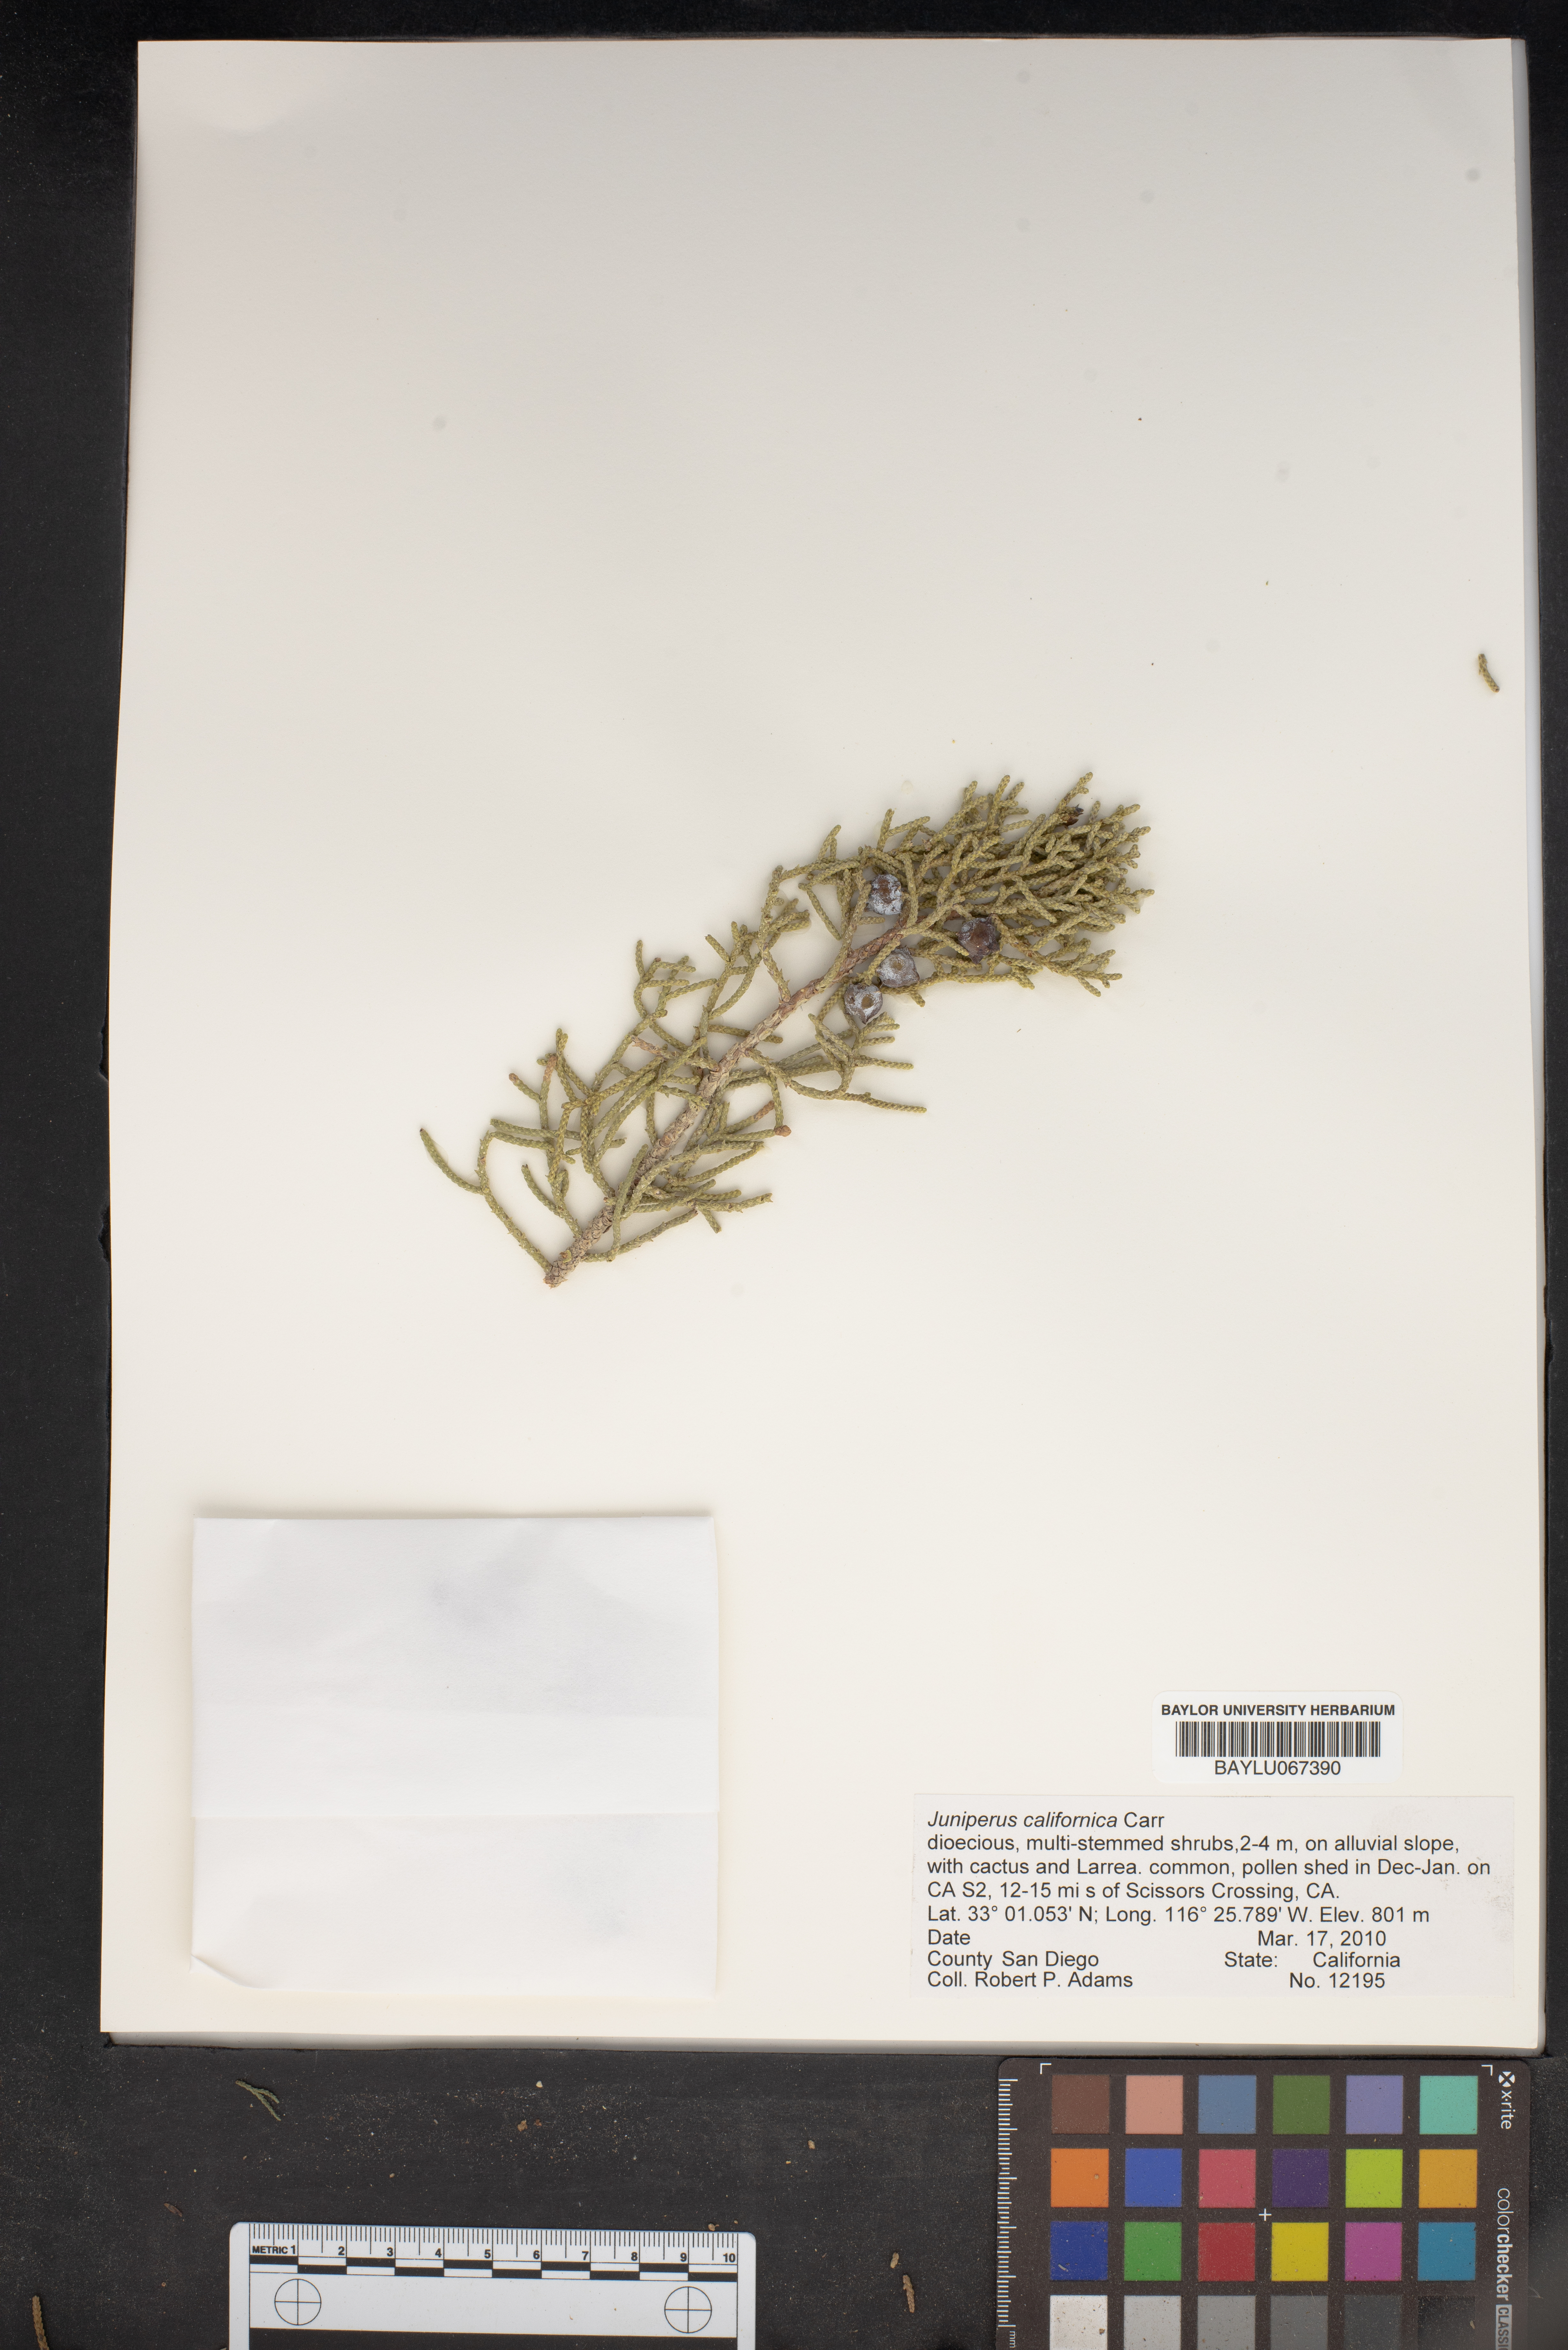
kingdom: Plantae
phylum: Tracheophyta
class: Pinopsida
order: Pinales
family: Cupressaceae
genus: Juniperus
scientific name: Juniperus californica
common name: California juniper
